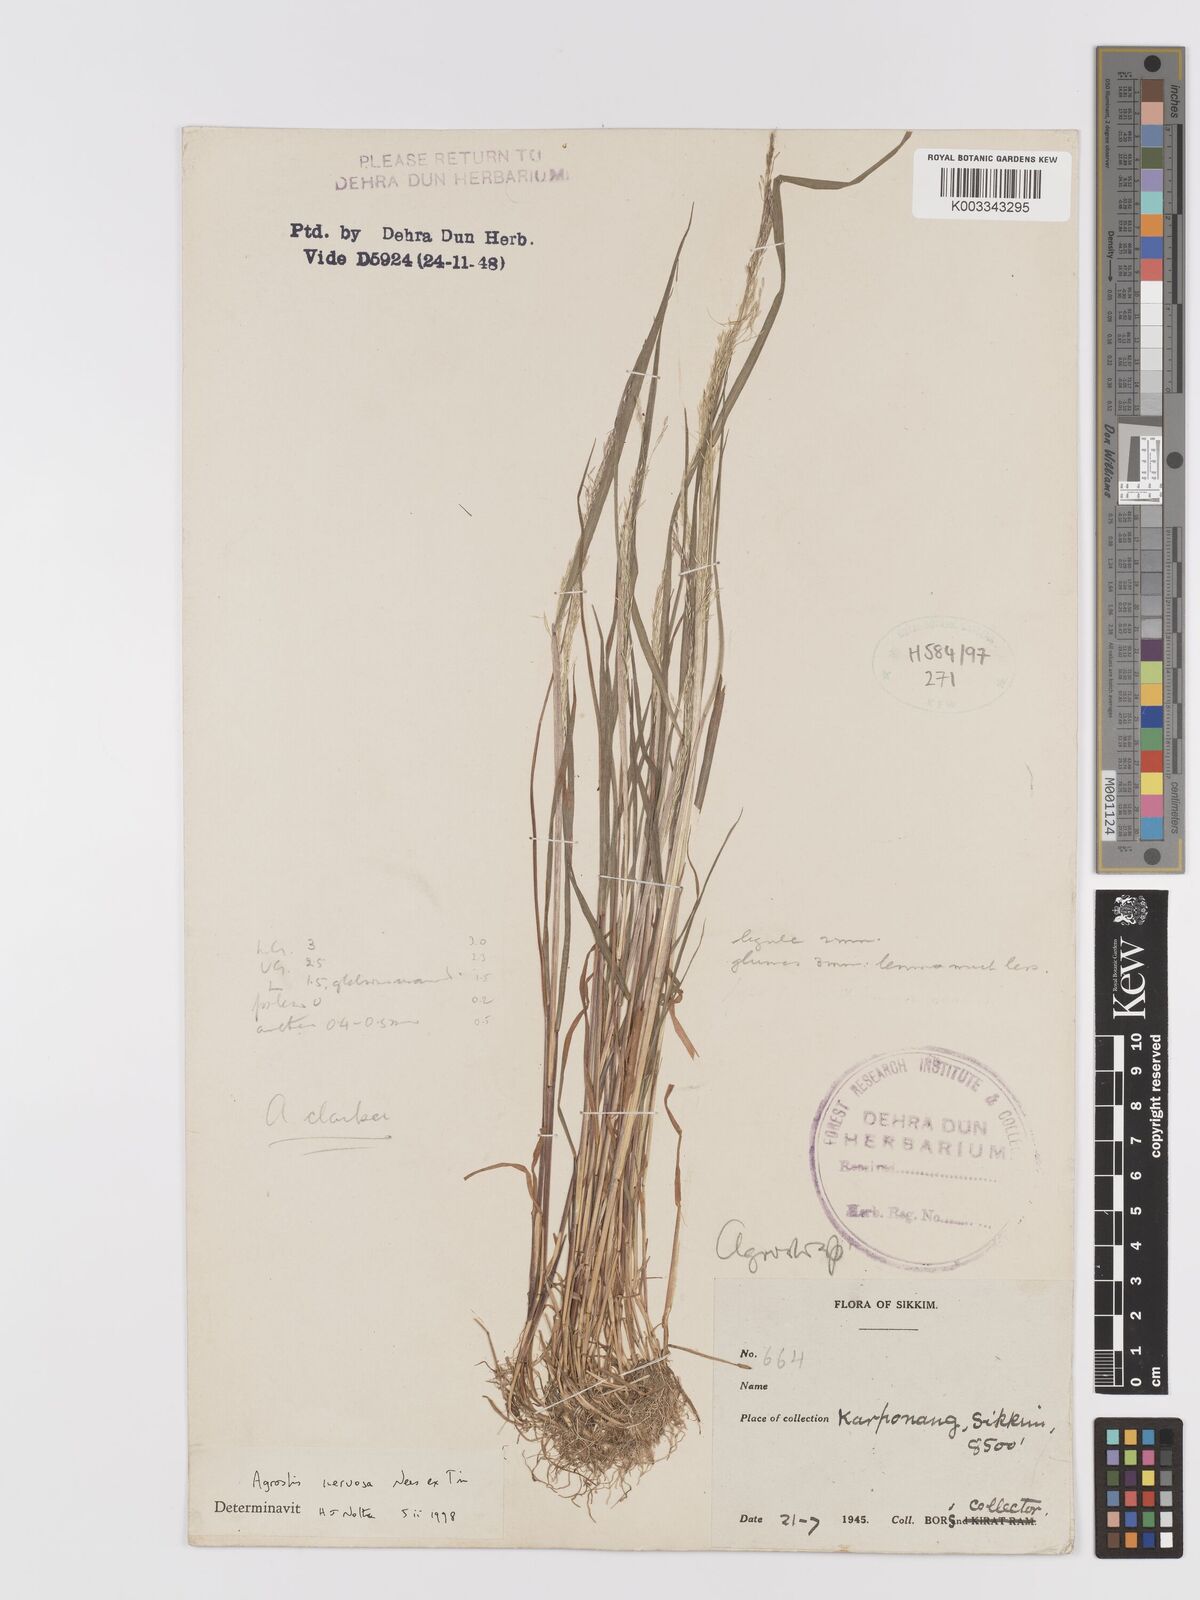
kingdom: Plantae
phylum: Tracheophyta
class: Liliopsida
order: Poales
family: Poaceae
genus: Agrostis
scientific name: Agrostis nervosa
